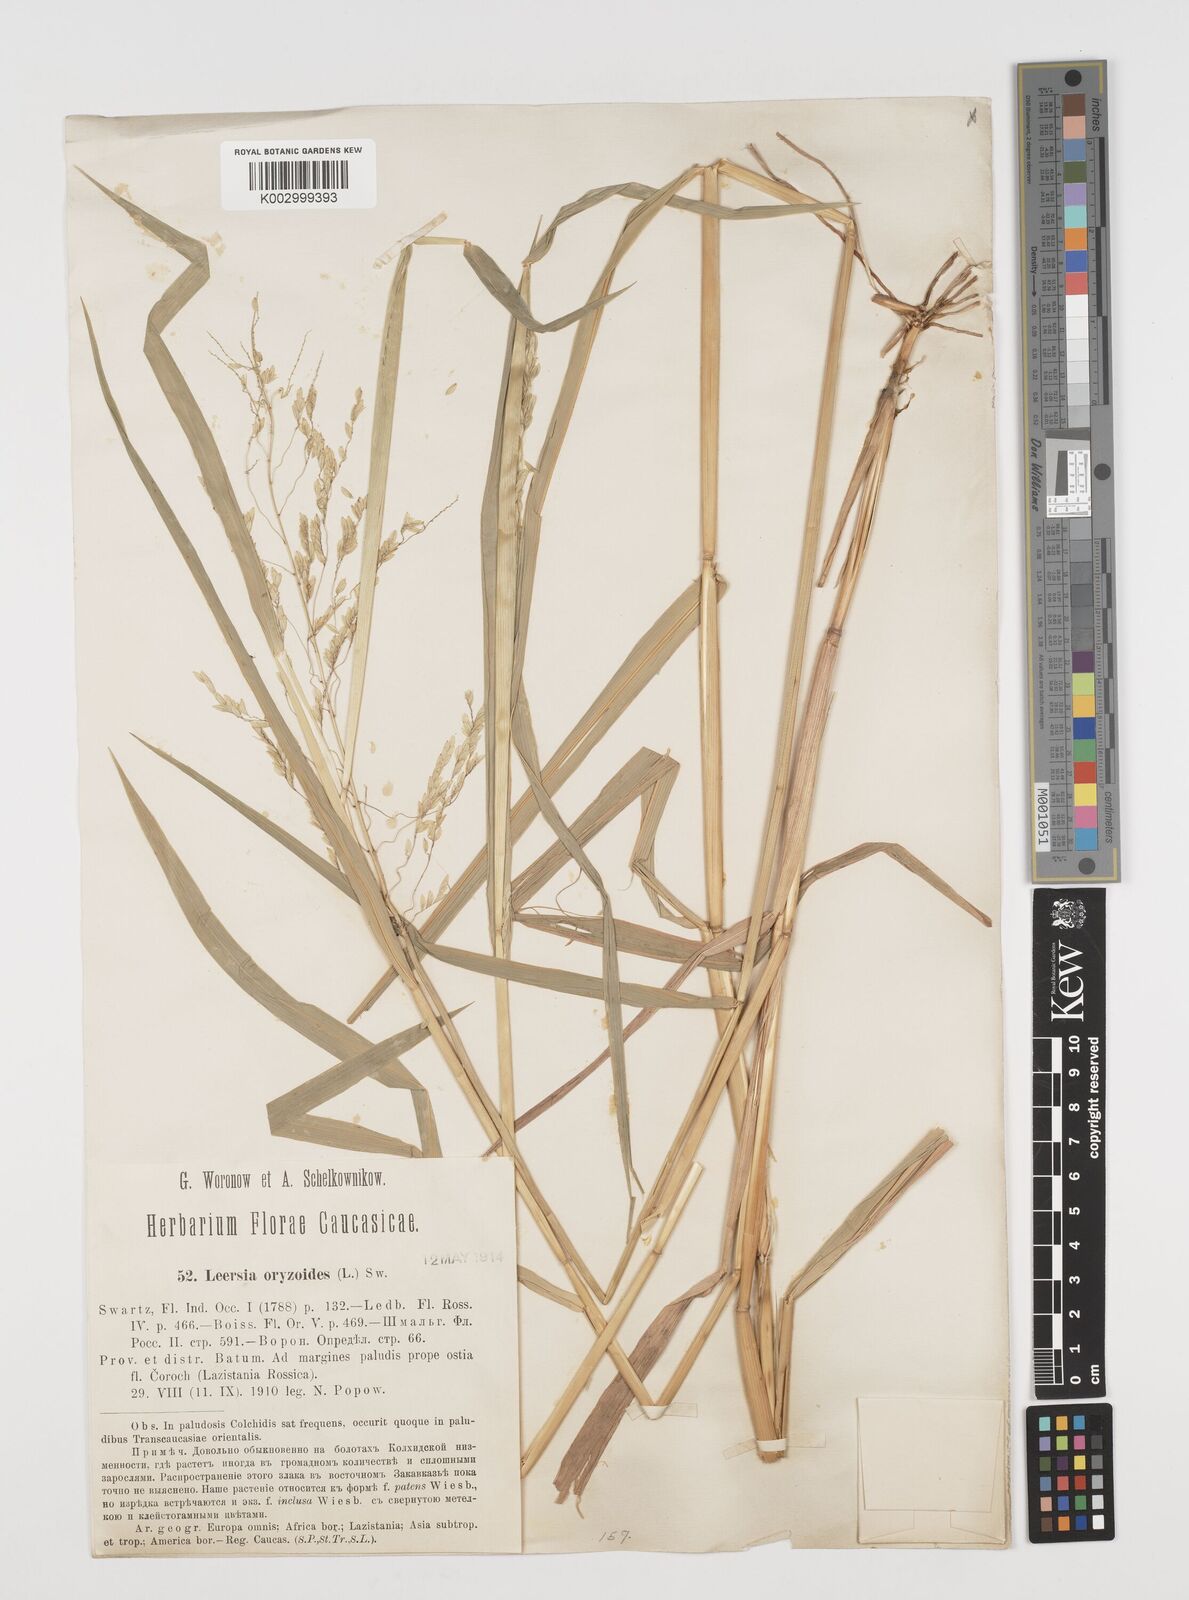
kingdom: Plantae
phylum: Tracheophyta
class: Liliopsida
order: Poales
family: Poaceae
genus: Leersia
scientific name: Leersia oryzoides
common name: Cut-grass
